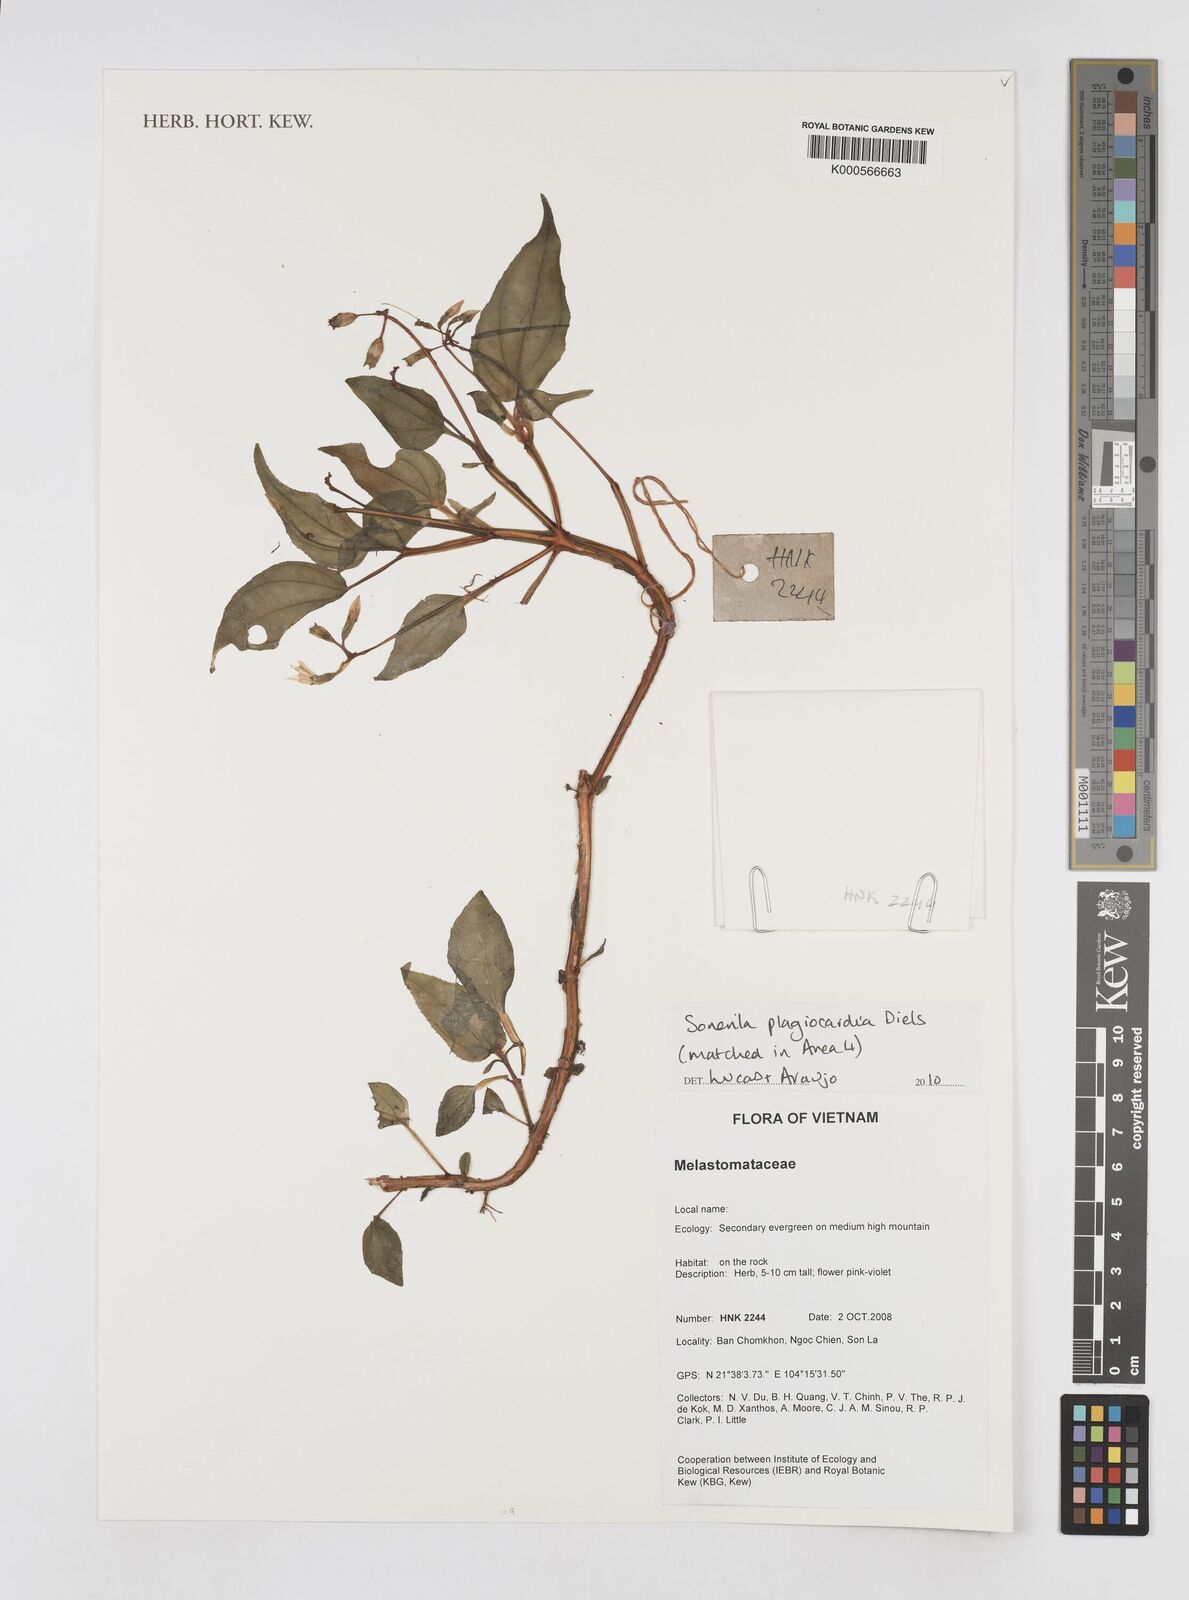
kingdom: Plantae
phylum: Tracheophyta
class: Magnoliopsida
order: Myrtales
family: Melastomataceae
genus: Sonerila
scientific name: Sonerila plagiocardia
